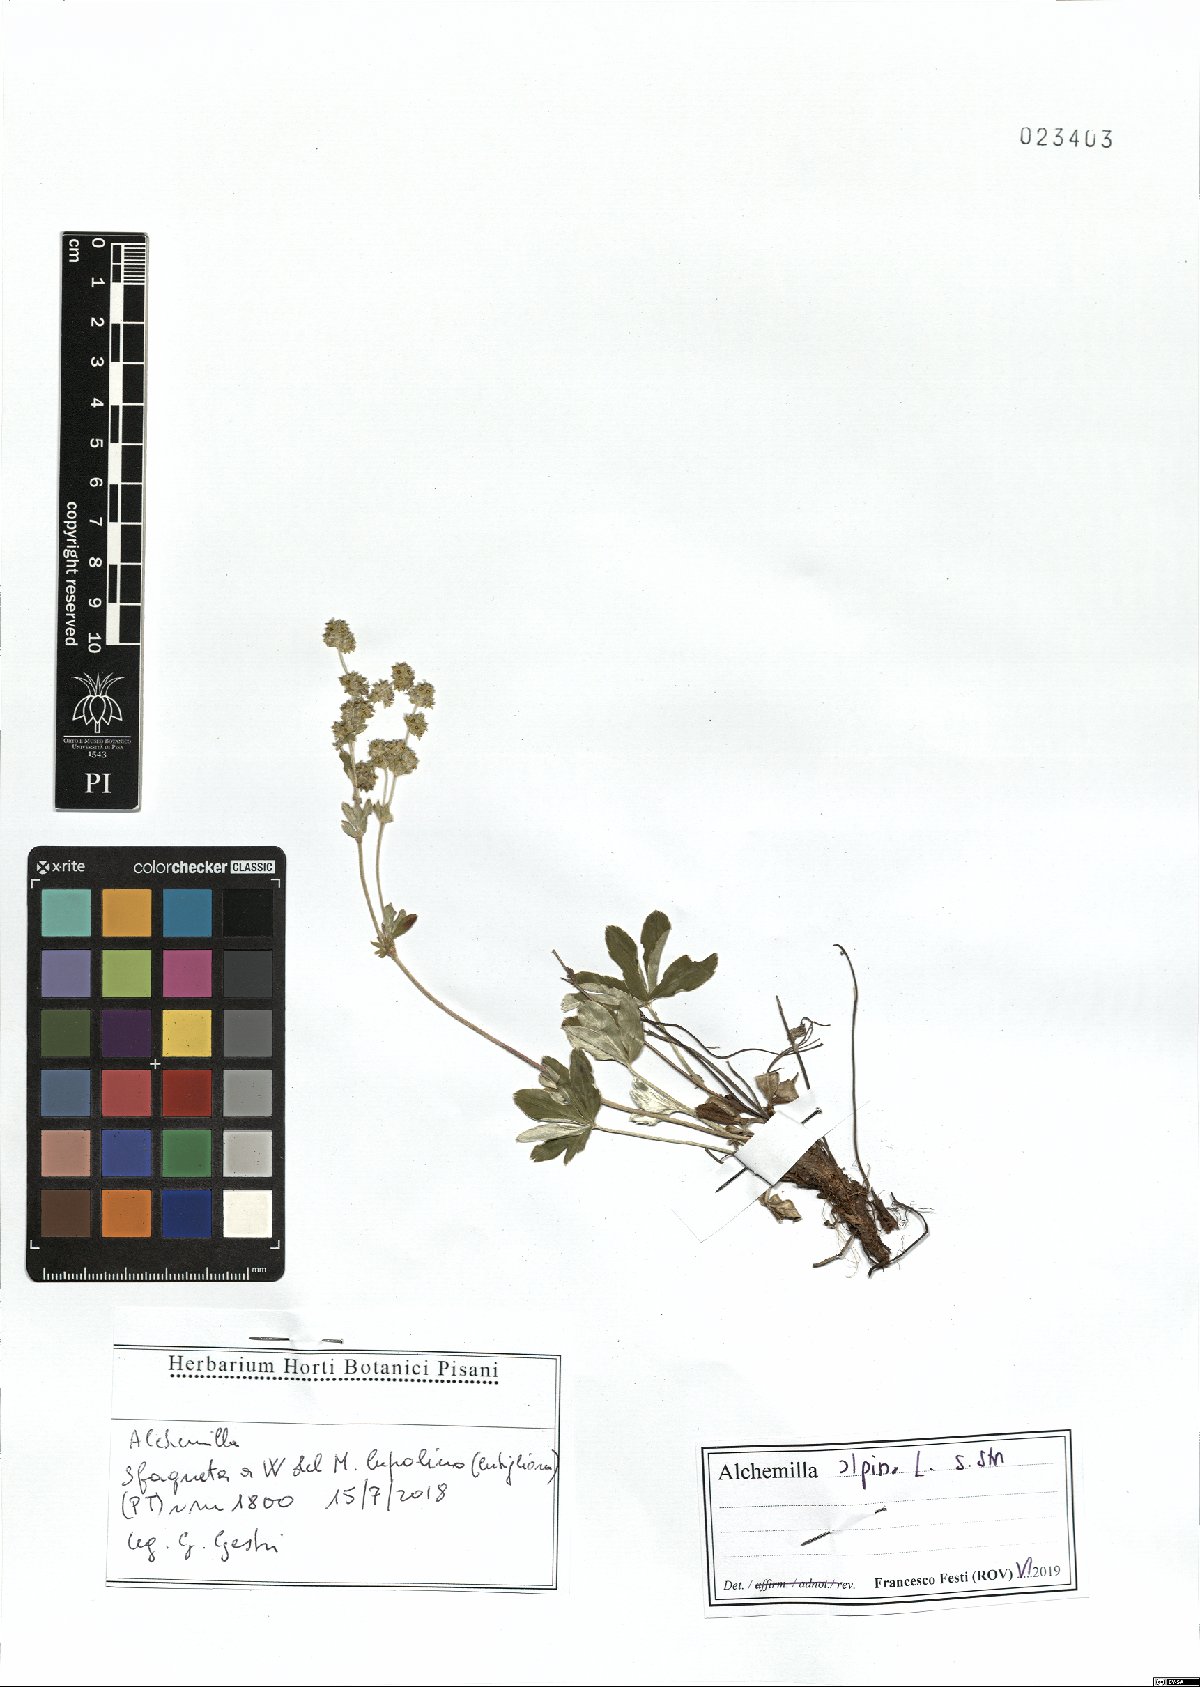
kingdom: Plantae
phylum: Tracheophyta
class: Magnoliopsida
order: Rosales
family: Rosaceae
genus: Alchemilla
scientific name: Alchemilla alpina
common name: Alpine lady's-mantle
